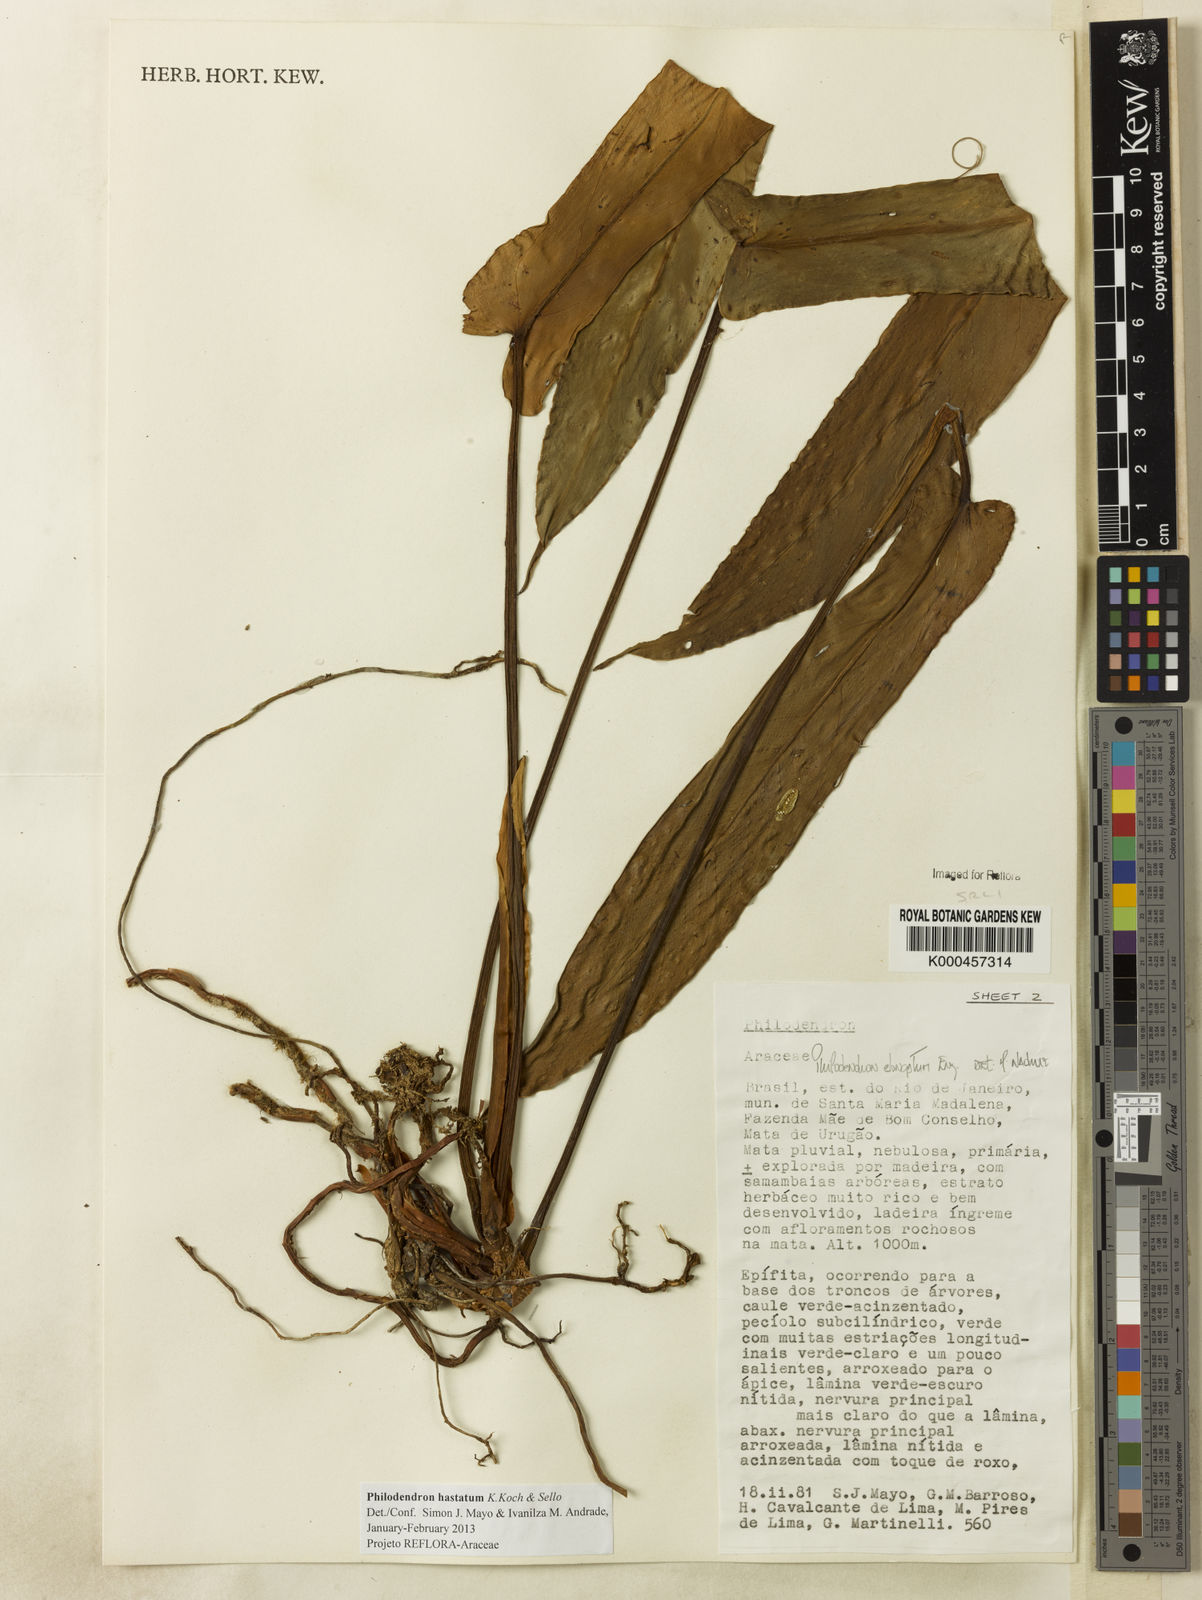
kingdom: Plantae
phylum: Tracheophyta
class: Liliopsida
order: Alismatales
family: Araceae
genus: Philodendron
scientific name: Philodendron hastatum
